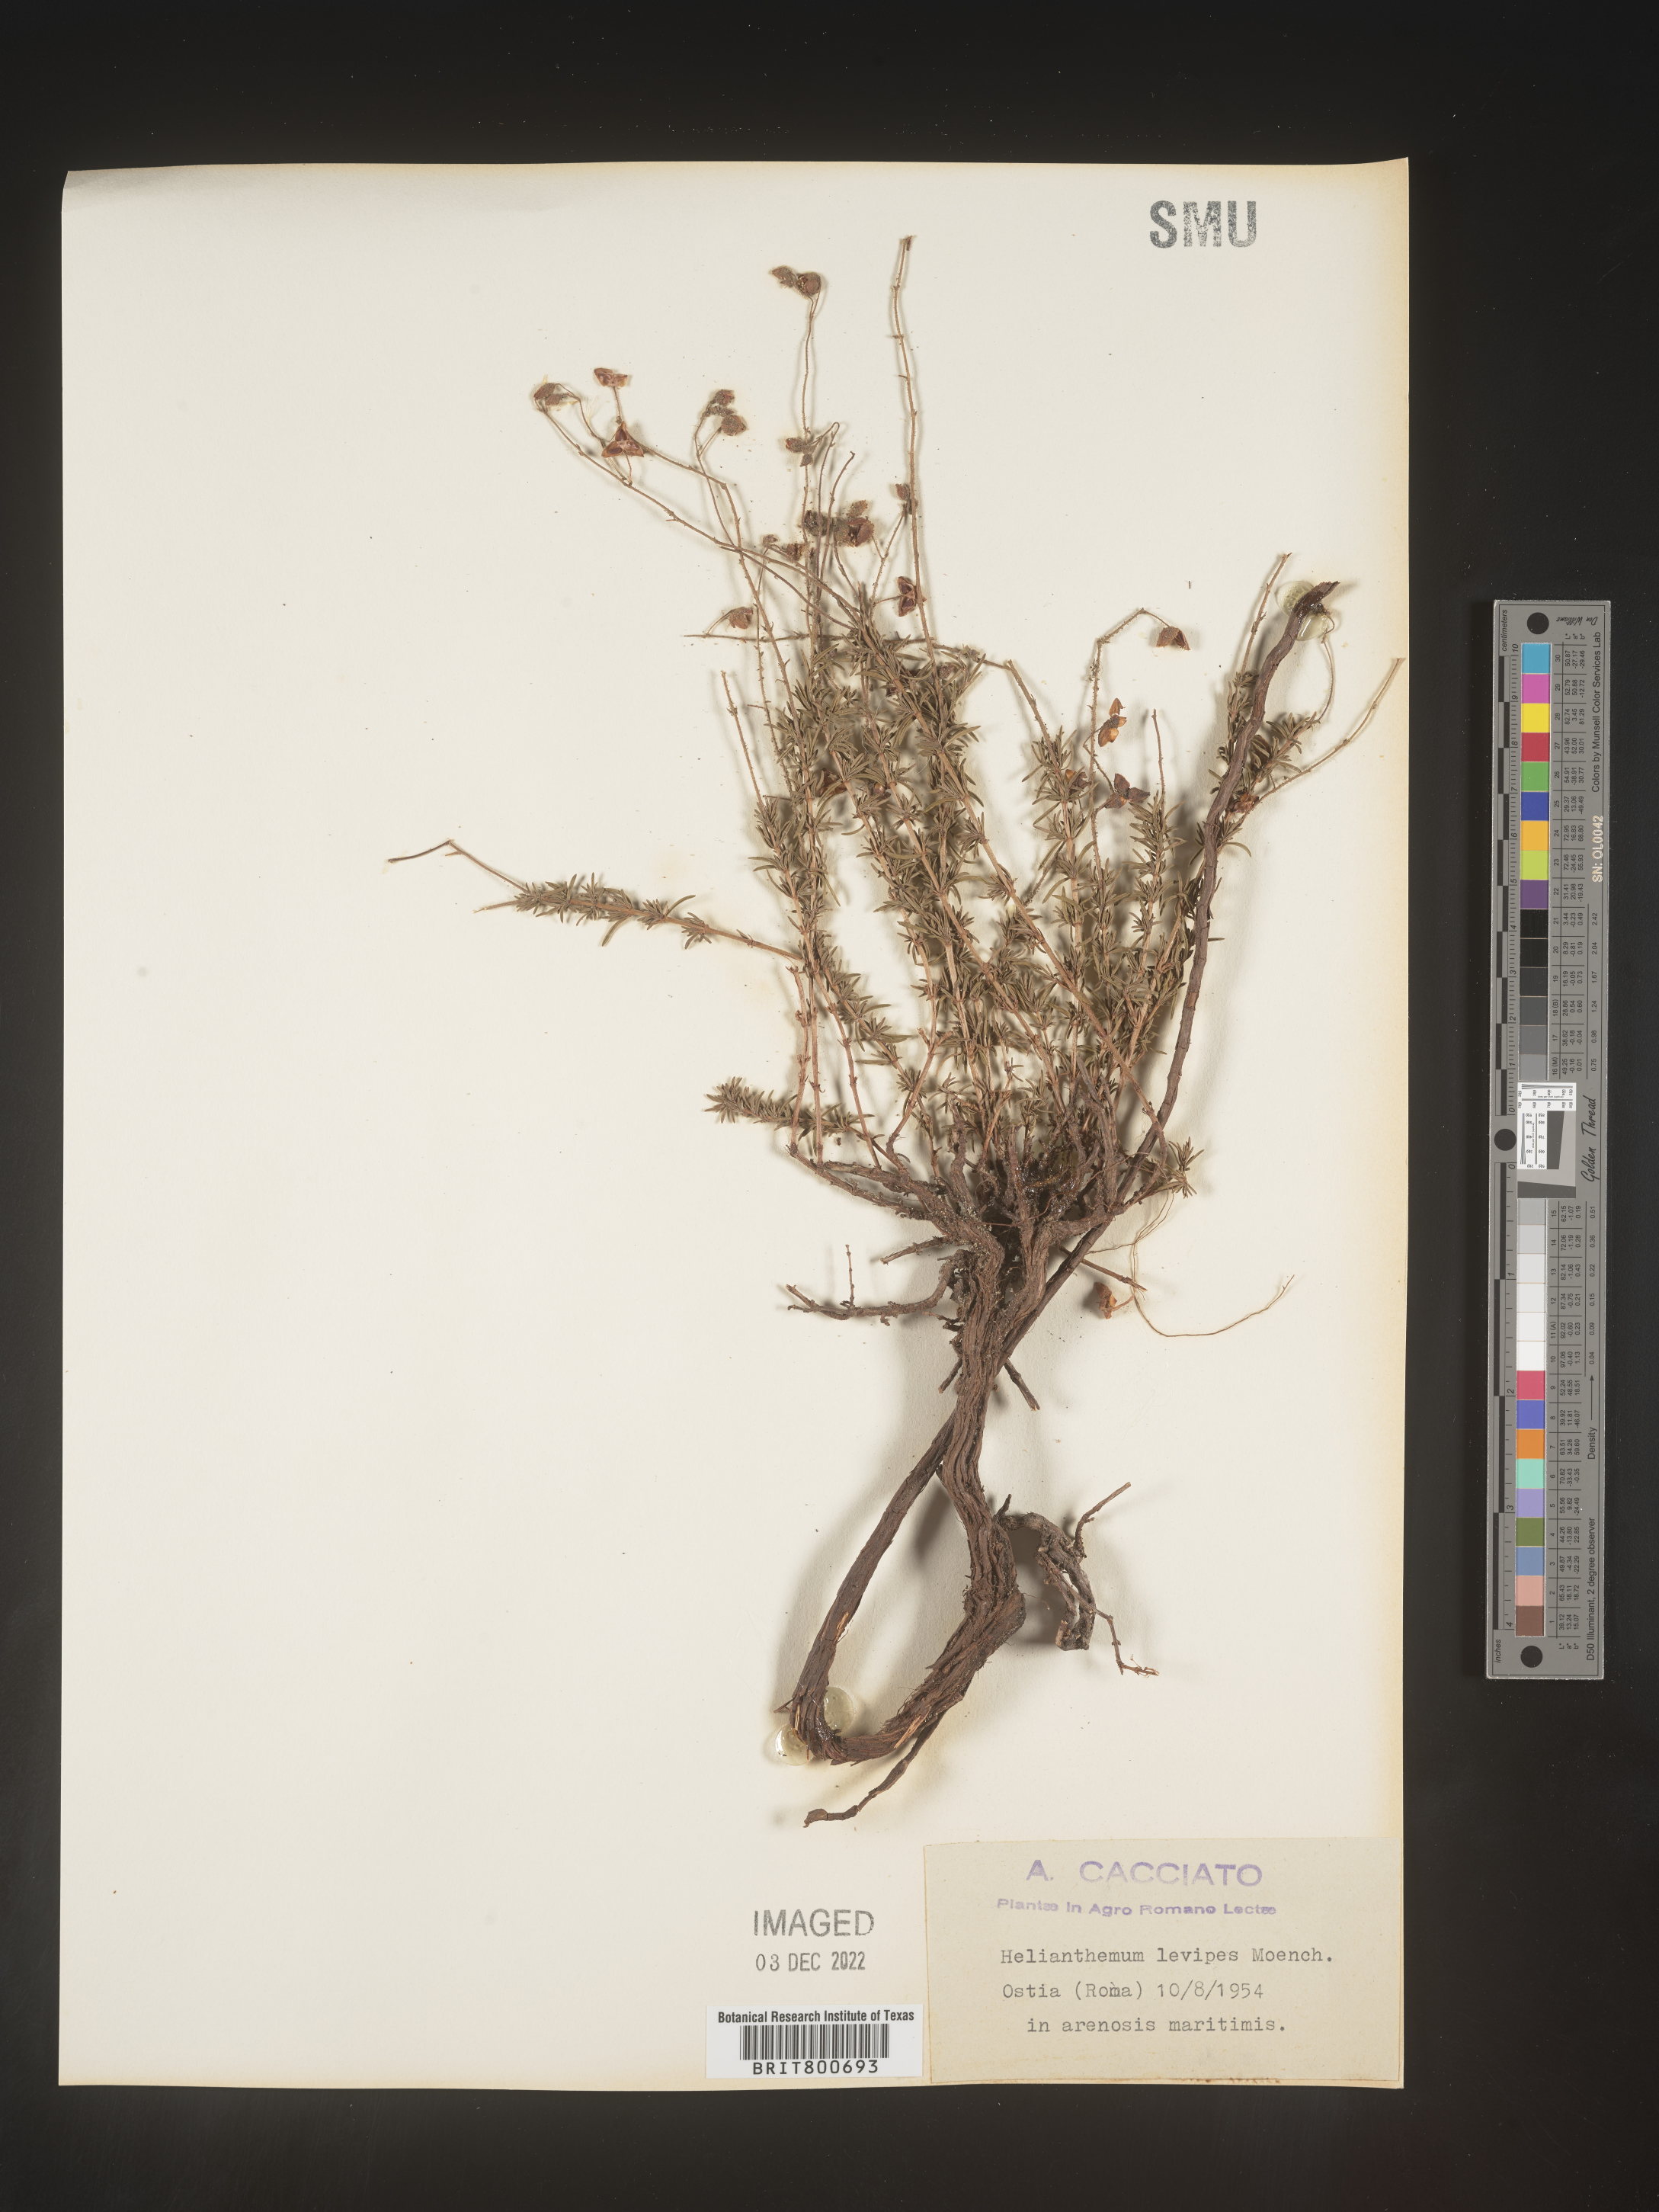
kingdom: Plantae
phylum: Tracheophyta
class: Magnoliopsida
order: Malvales
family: Cistaceae
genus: Helianthemum
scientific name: Helianthemum
